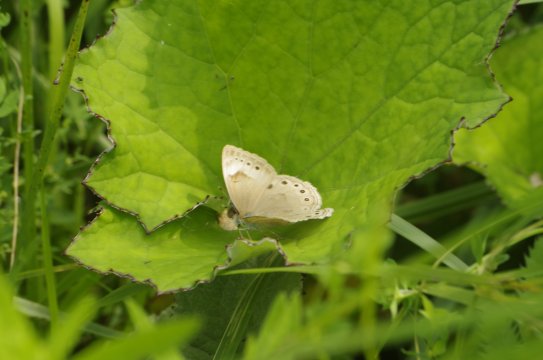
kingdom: Animalia
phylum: Arthropoda
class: Insecta
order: Lepidoptera
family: Nymphalidae
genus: Lethe
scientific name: Lethe eurydice
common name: Eyed Brown
